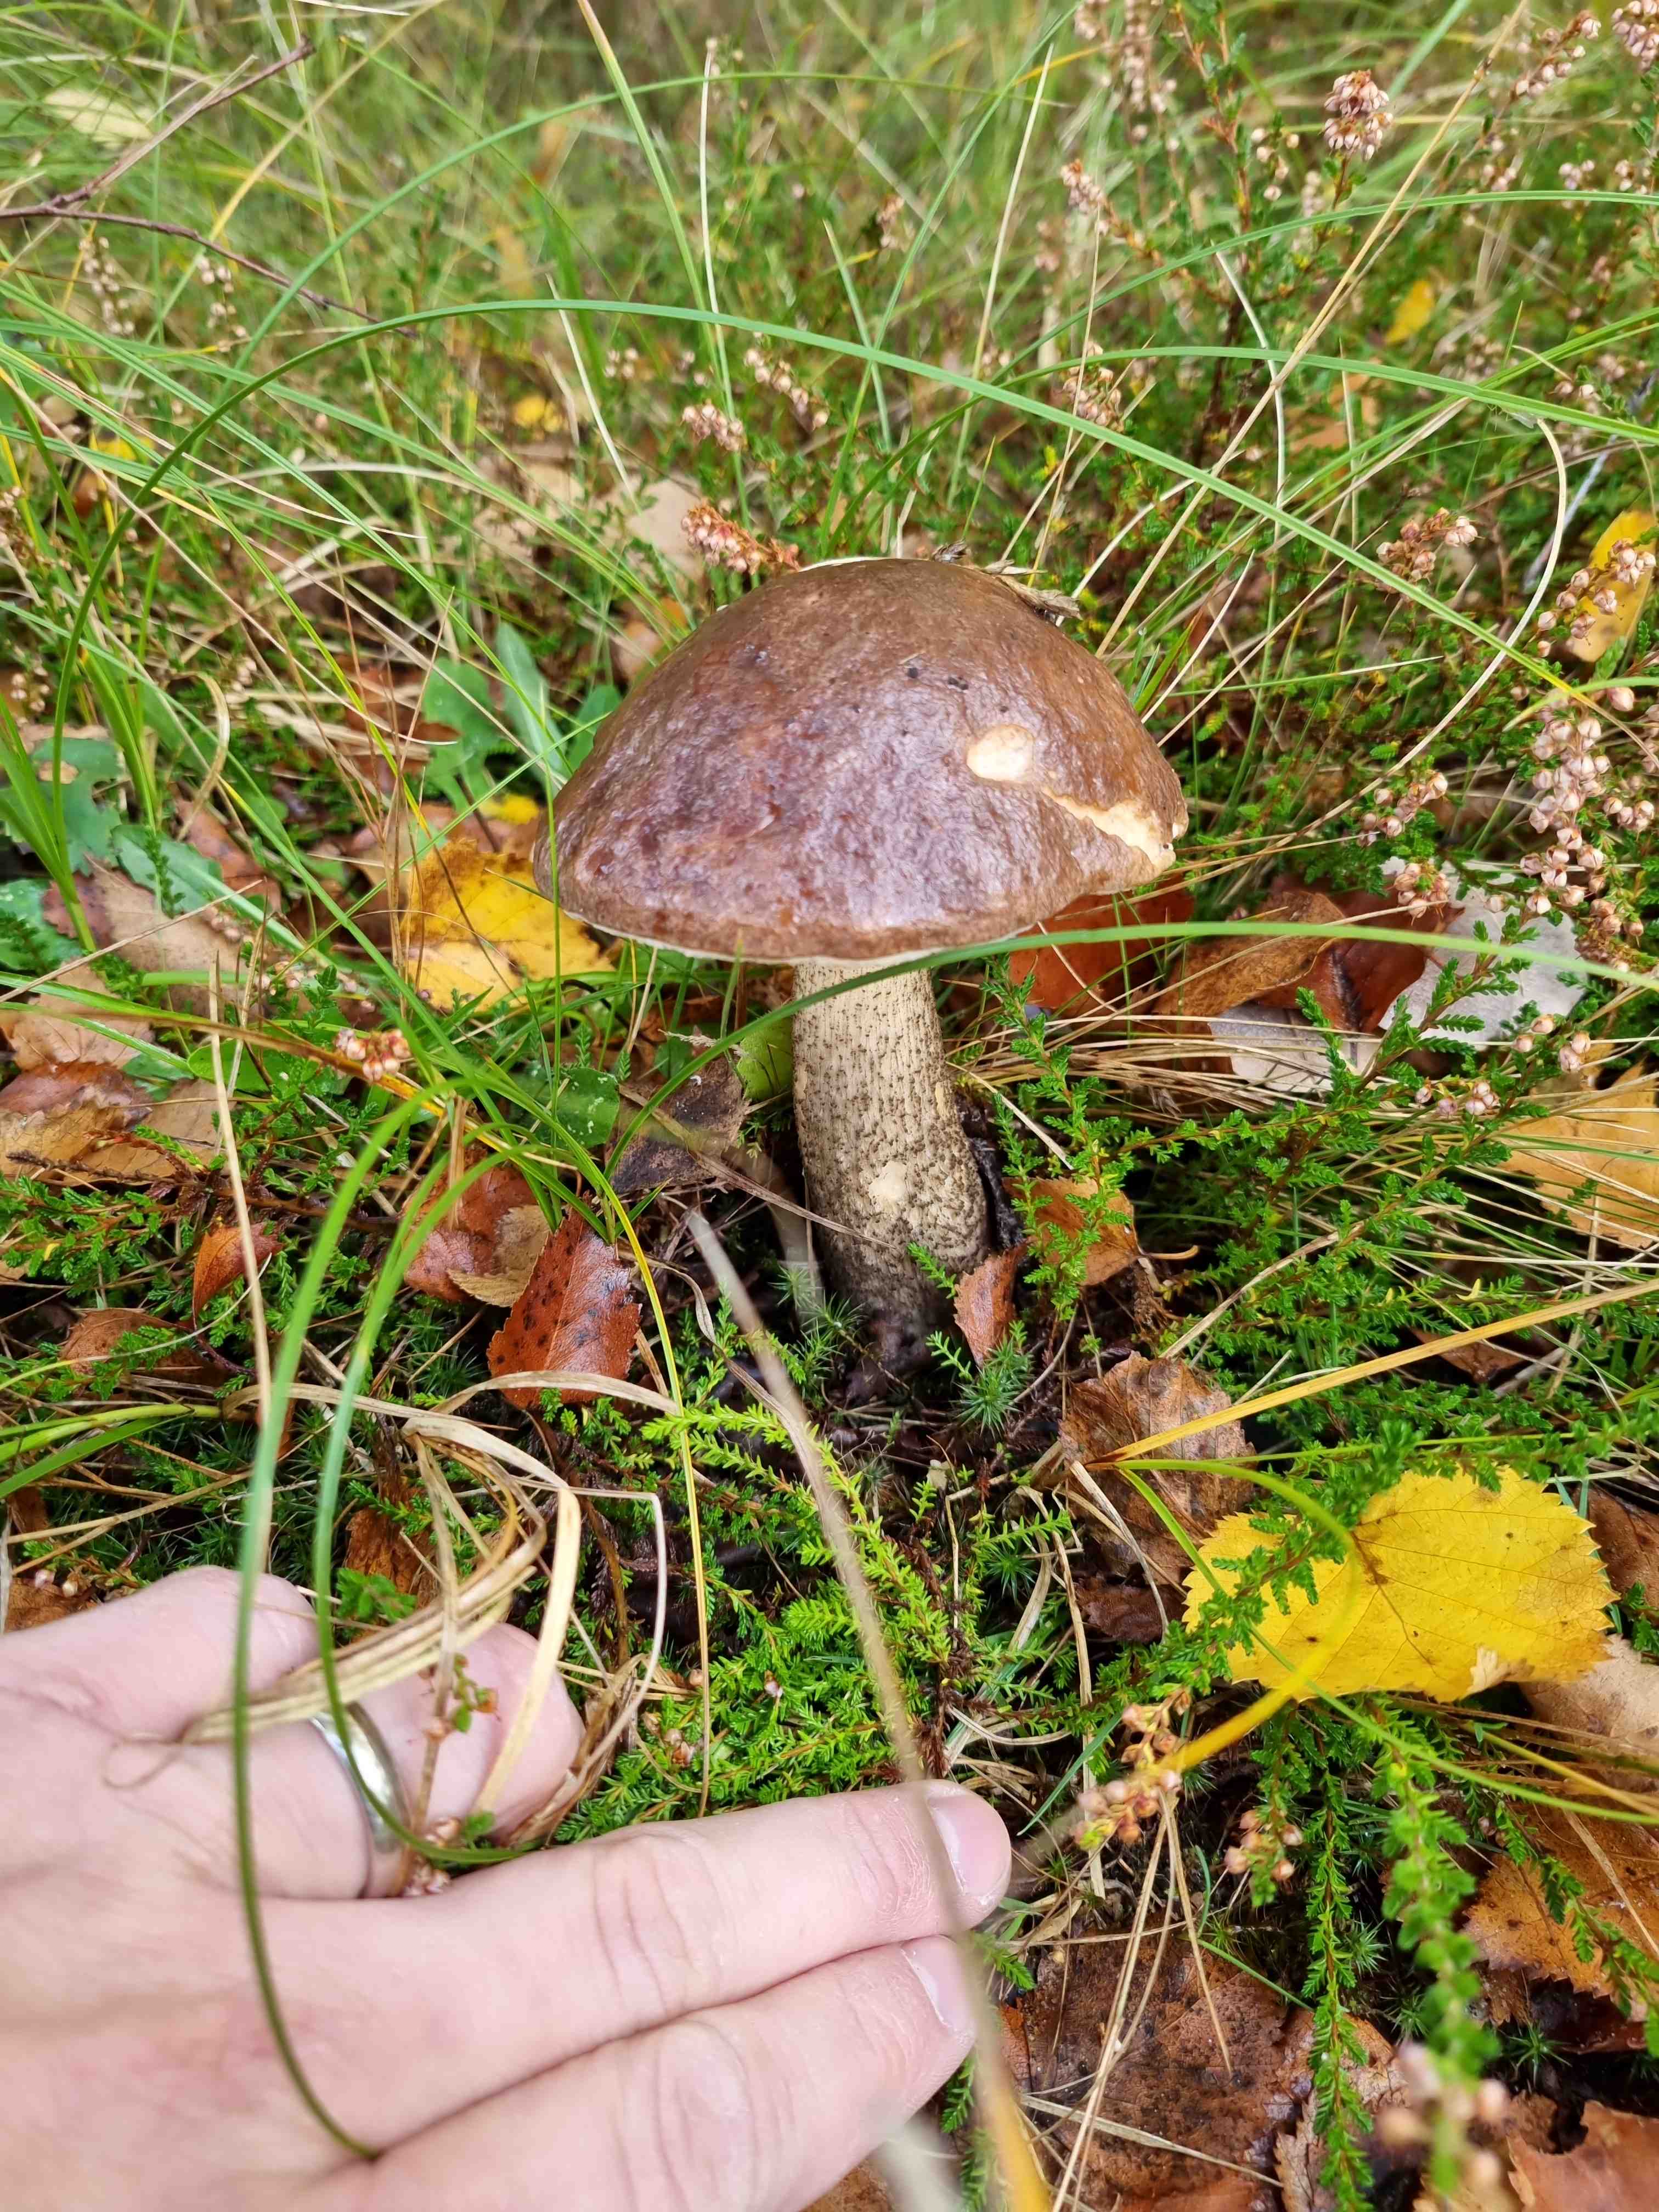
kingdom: Fungi
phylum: Basidiomycota
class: Agaricomycetes
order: Boletales
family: Boletaceae
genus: Leccinum
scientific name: Leccinum scabrum
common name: brun skælrørhat
